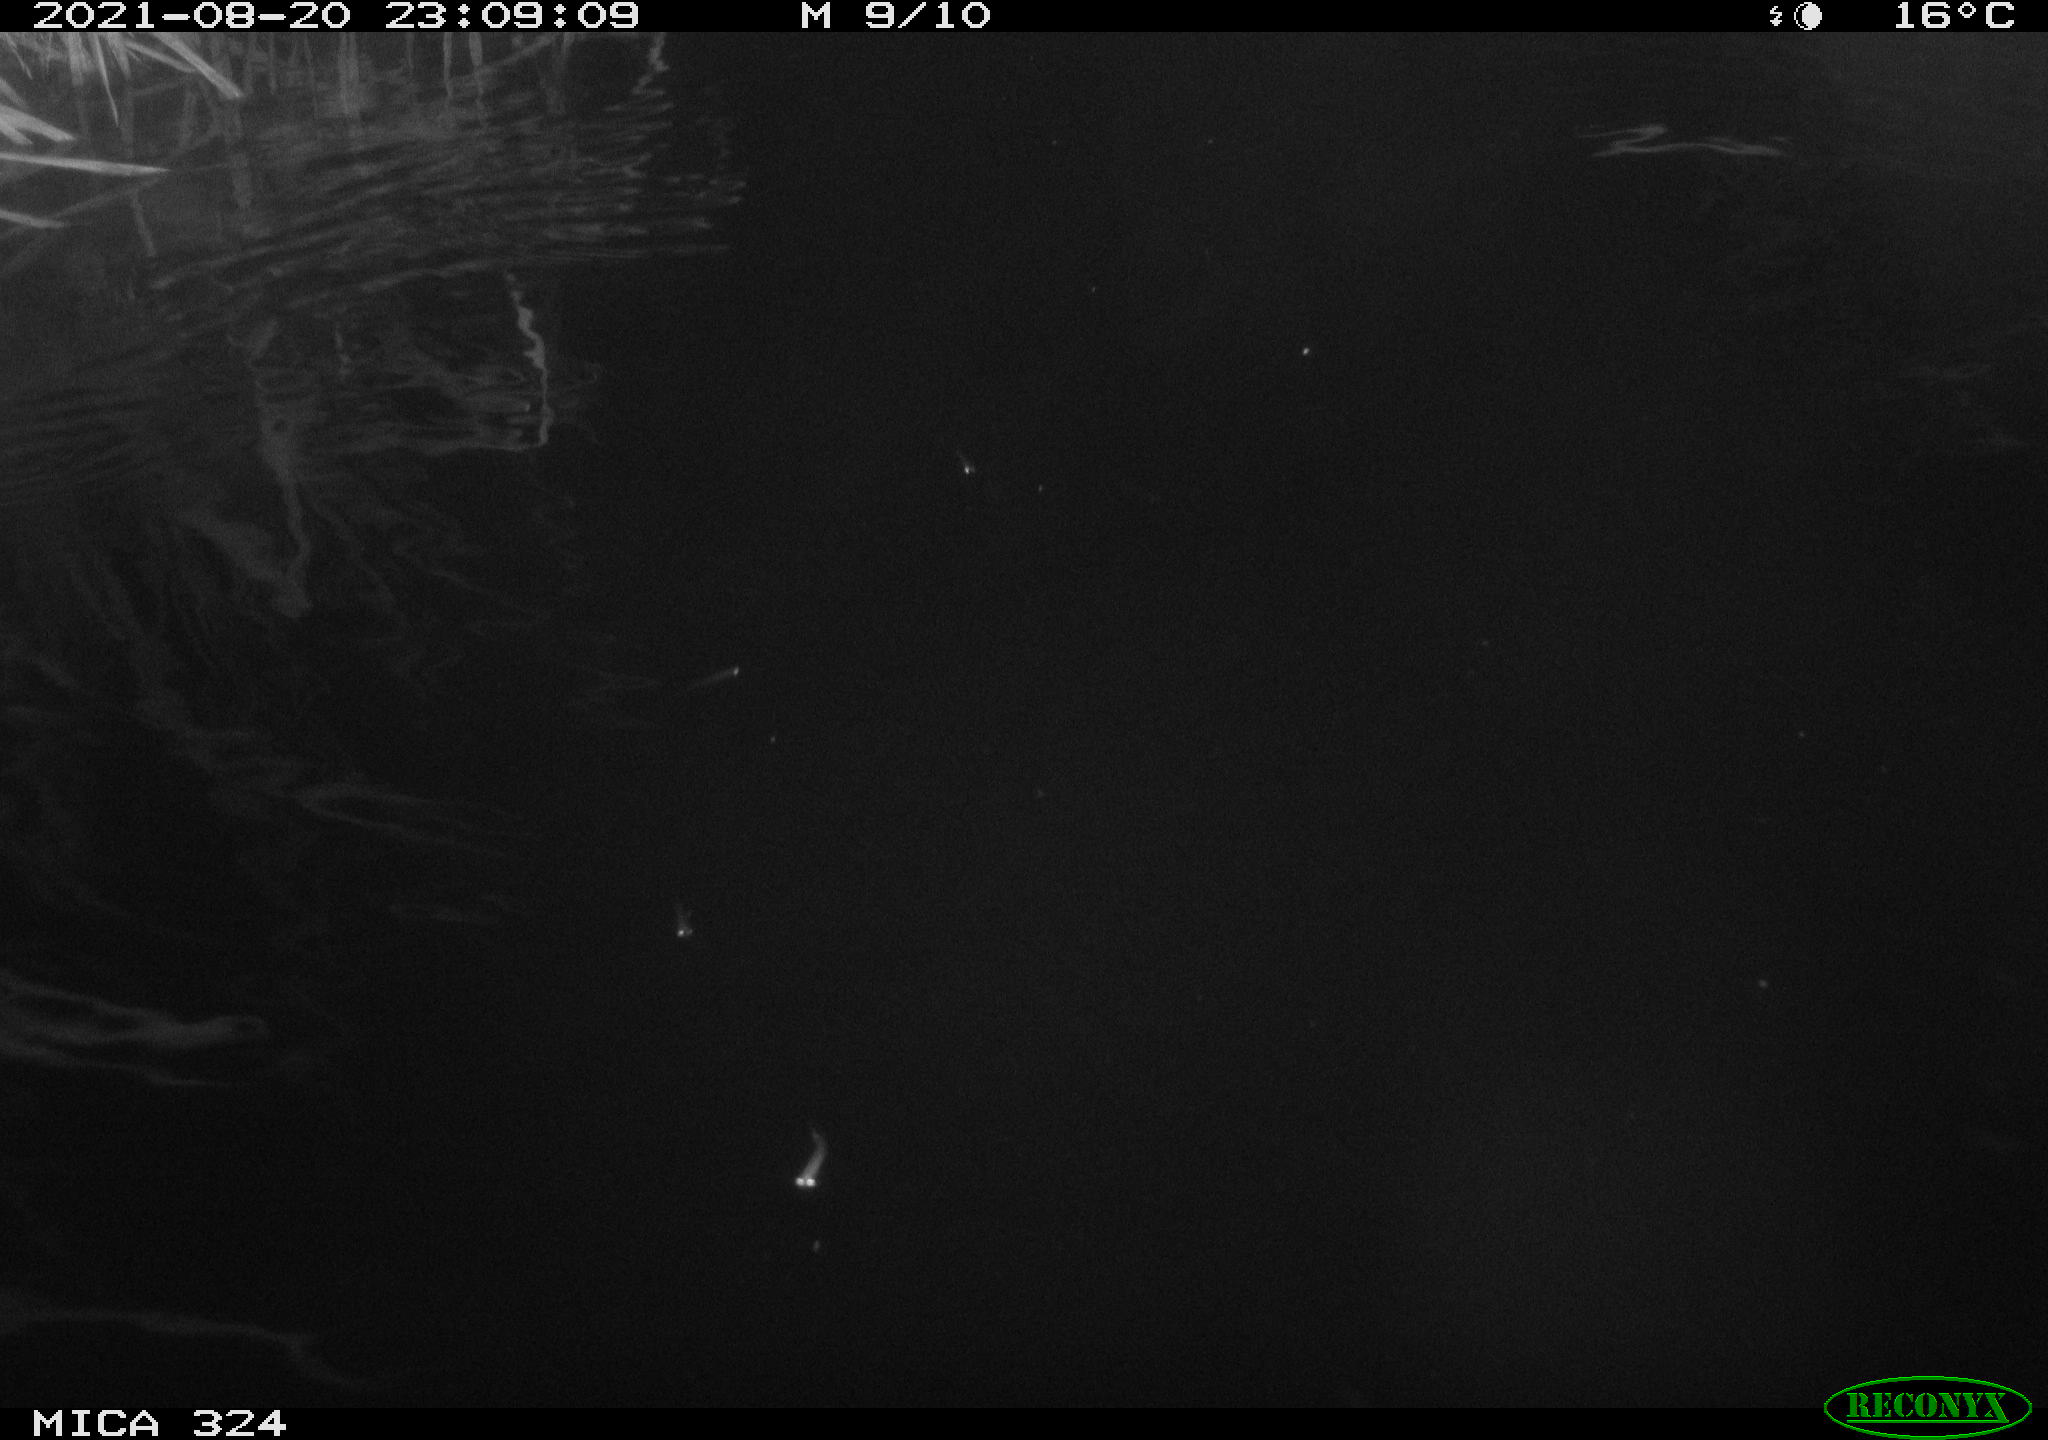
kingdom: Animalia
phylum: Chordata
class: Aves
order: Anseriformes
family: Anatidae
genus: Anas
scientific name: Anas platyrhynchos
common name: Mallard
